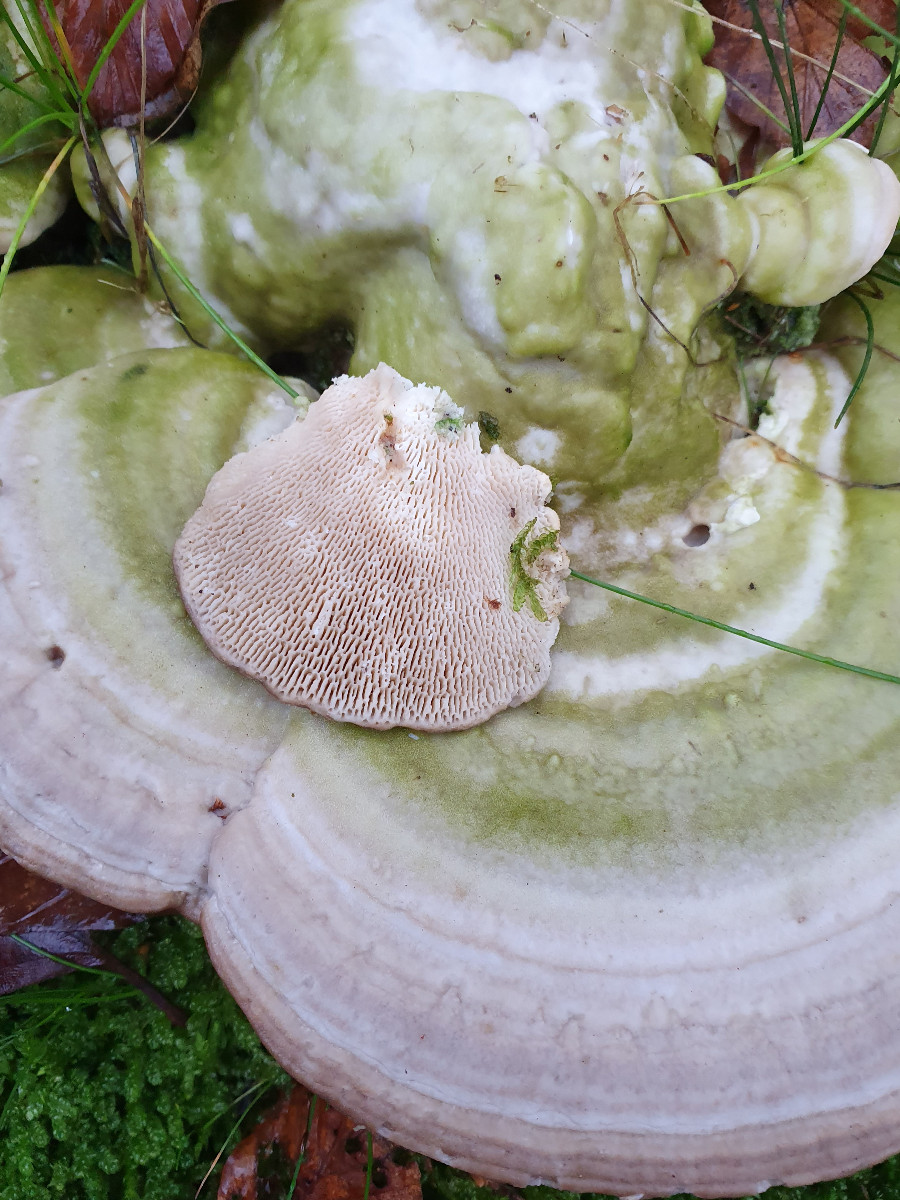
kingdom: Fungi
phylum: Basidiomycota
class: Agaricomycetes
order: Polyporales
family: Polyporaceae
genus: Trametes
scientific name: Trametes gibbosa
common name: puklet læderporesvamp
